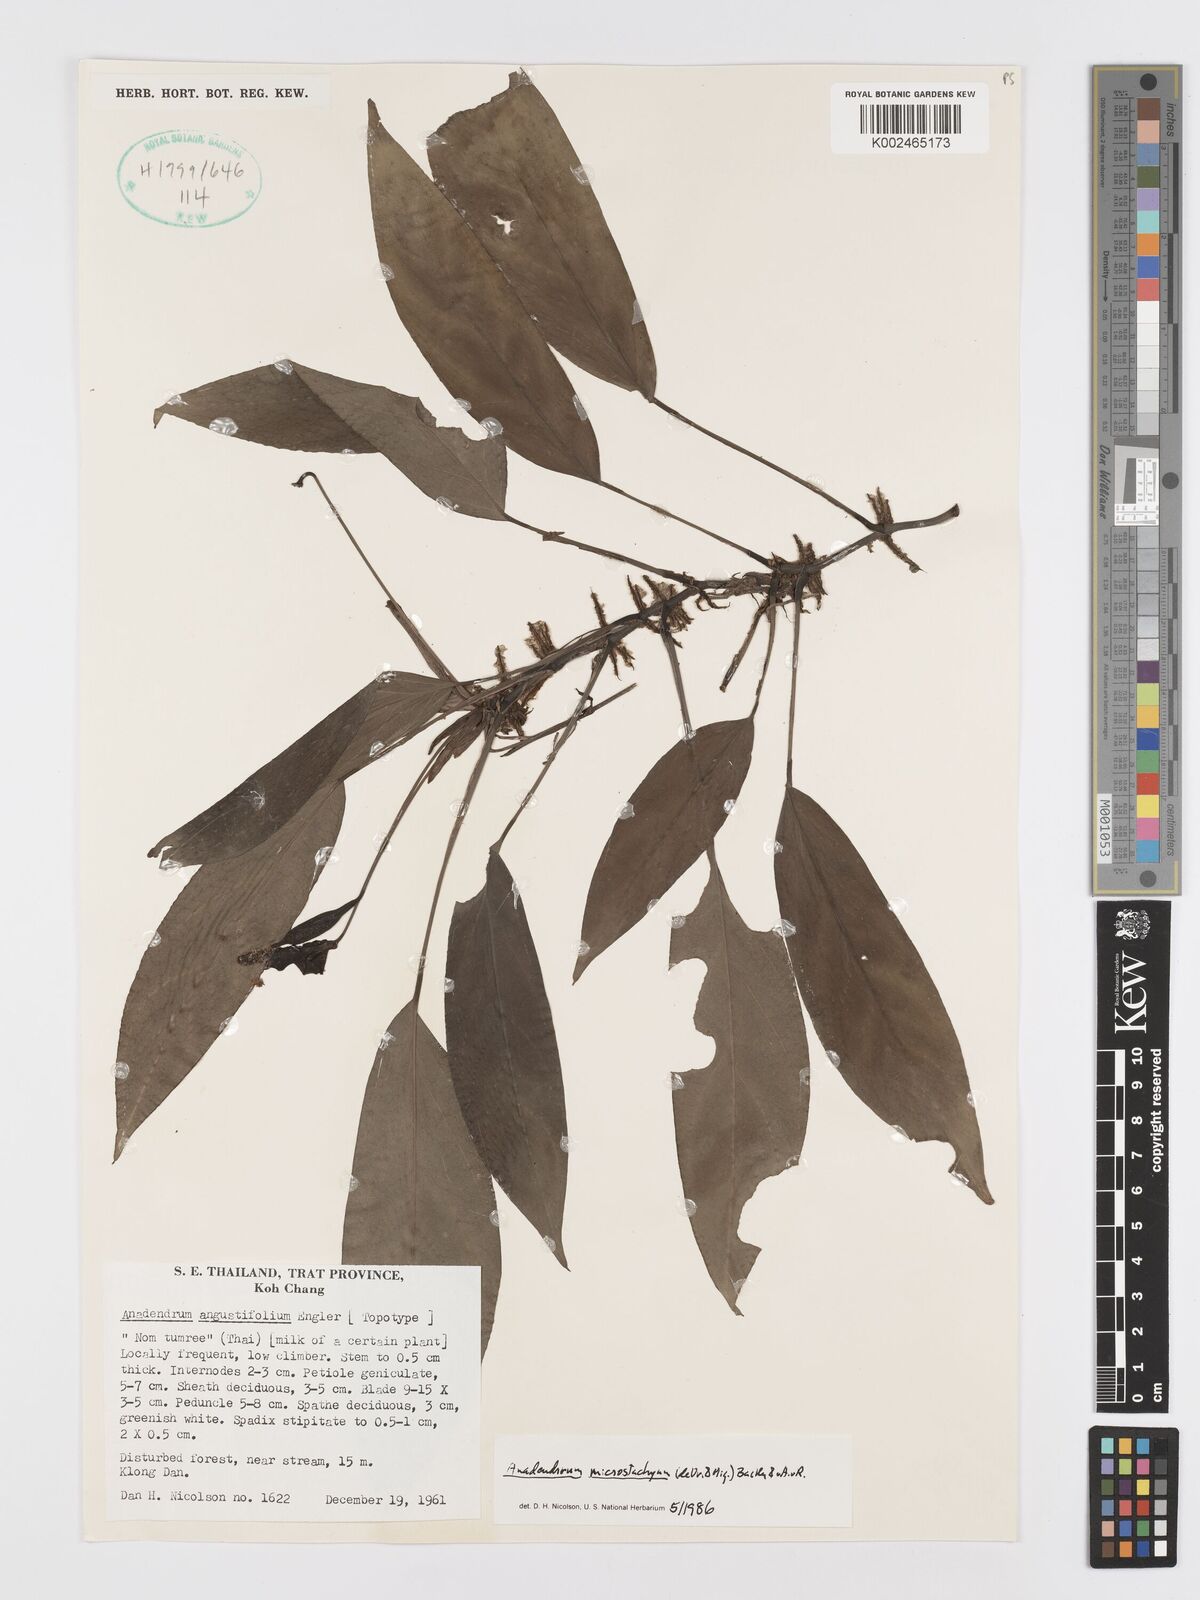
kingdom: Plantae
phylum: Tracheophyta
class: Liliopsida
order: Alismatales
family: Araceae
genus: Anadendrum
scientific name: Anadendrum microstachyum
